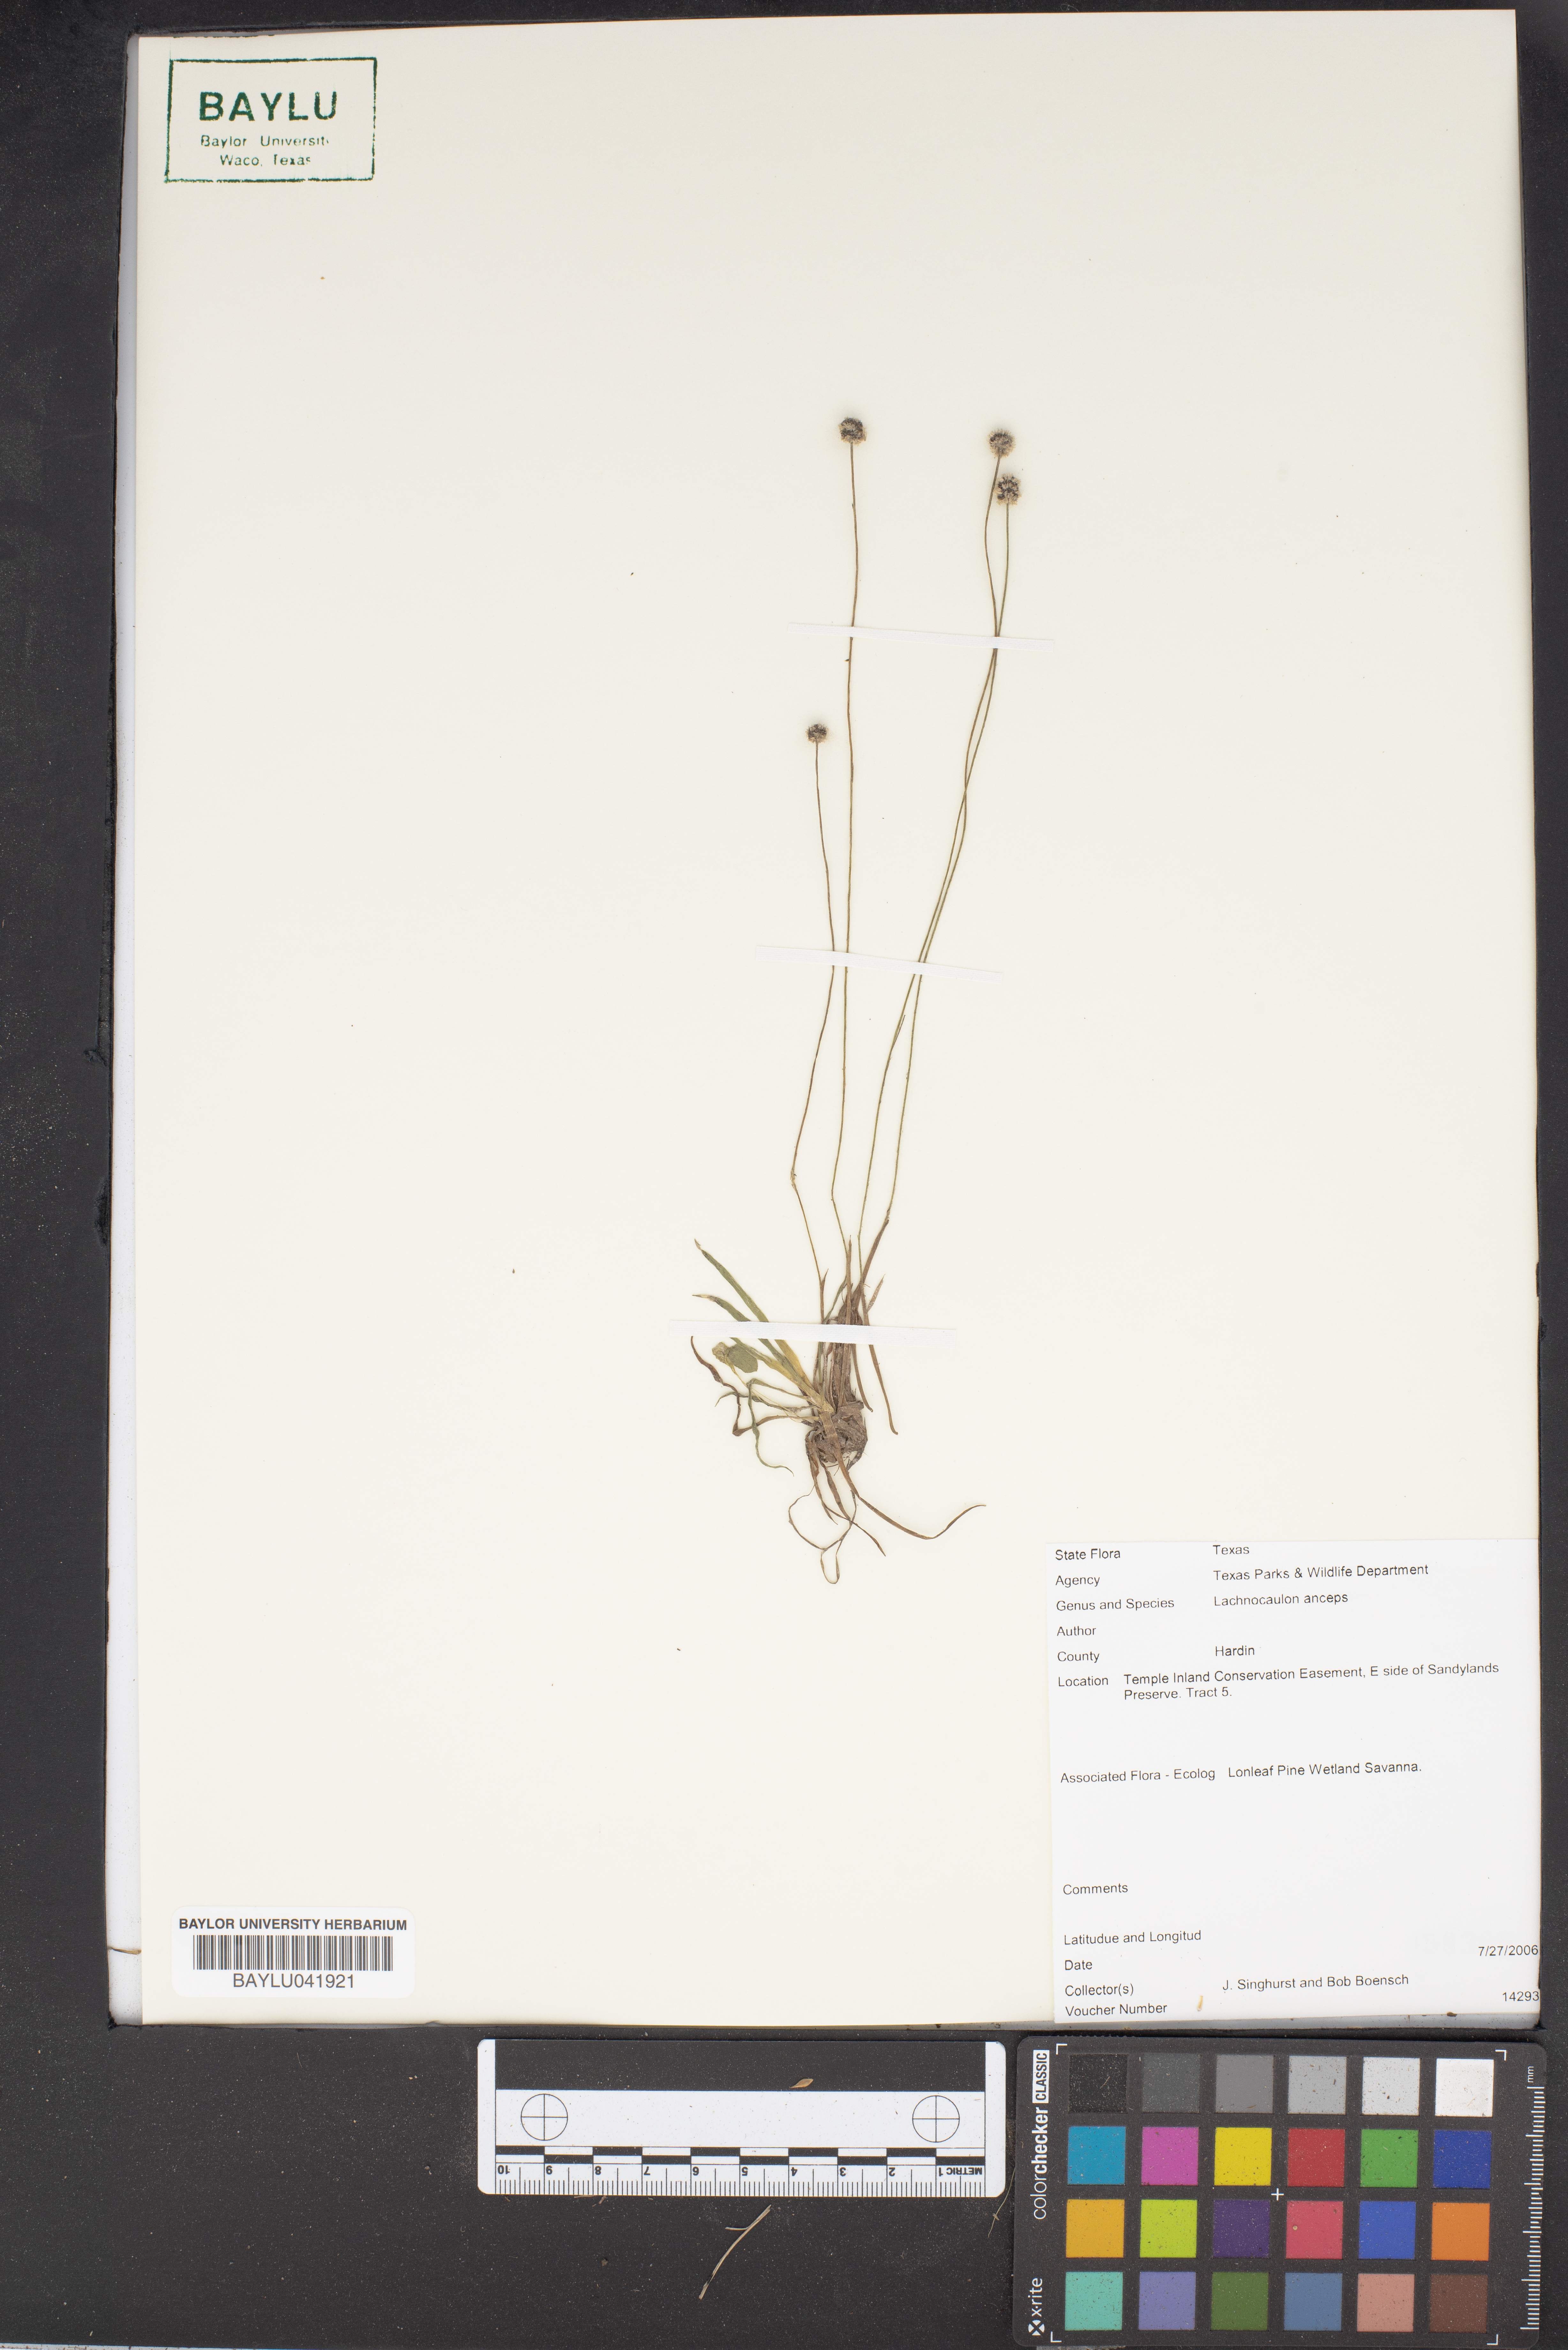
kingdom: Plantae
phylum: Tracheophyta
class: Liliopsida
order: Poales
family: Eriocaulaceae
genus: Paepalanthus
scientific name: Paepalanthus anceps
